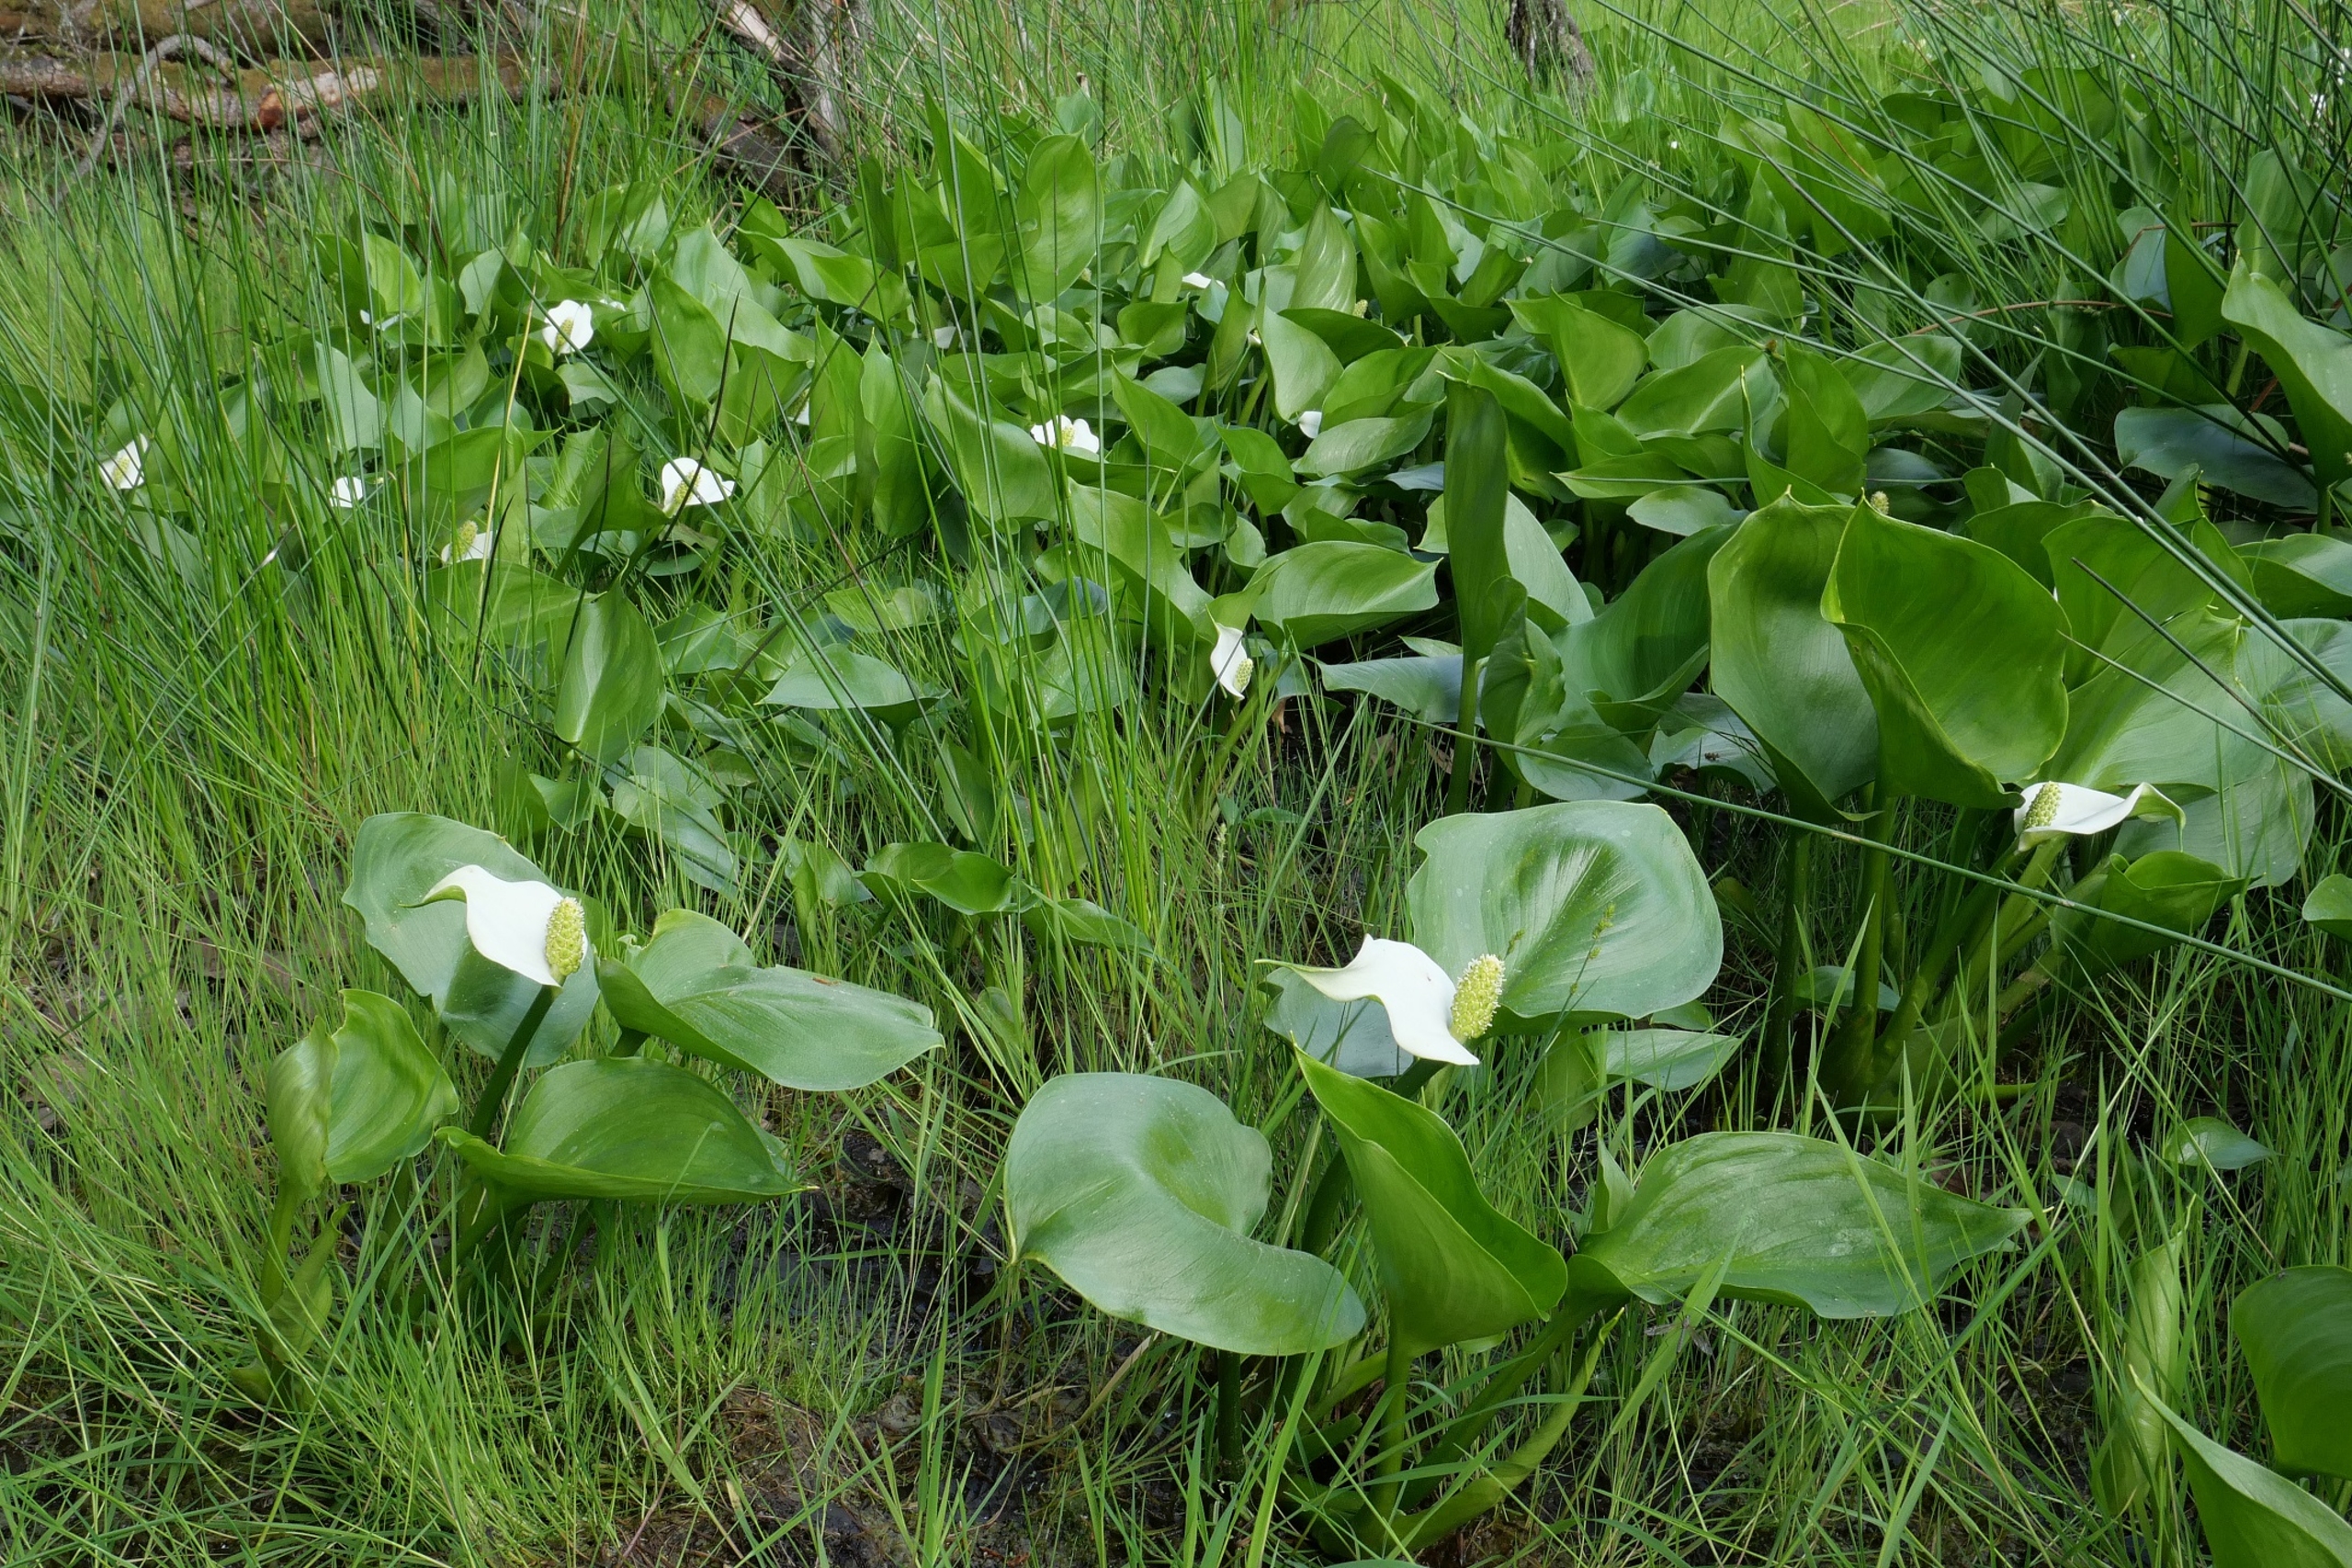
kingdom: Plantae
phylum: Tracheophyta
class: Liliopsida
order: Alismatales
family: Araceae
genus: Calla
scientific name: Calla palustris
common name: Kærmysse
